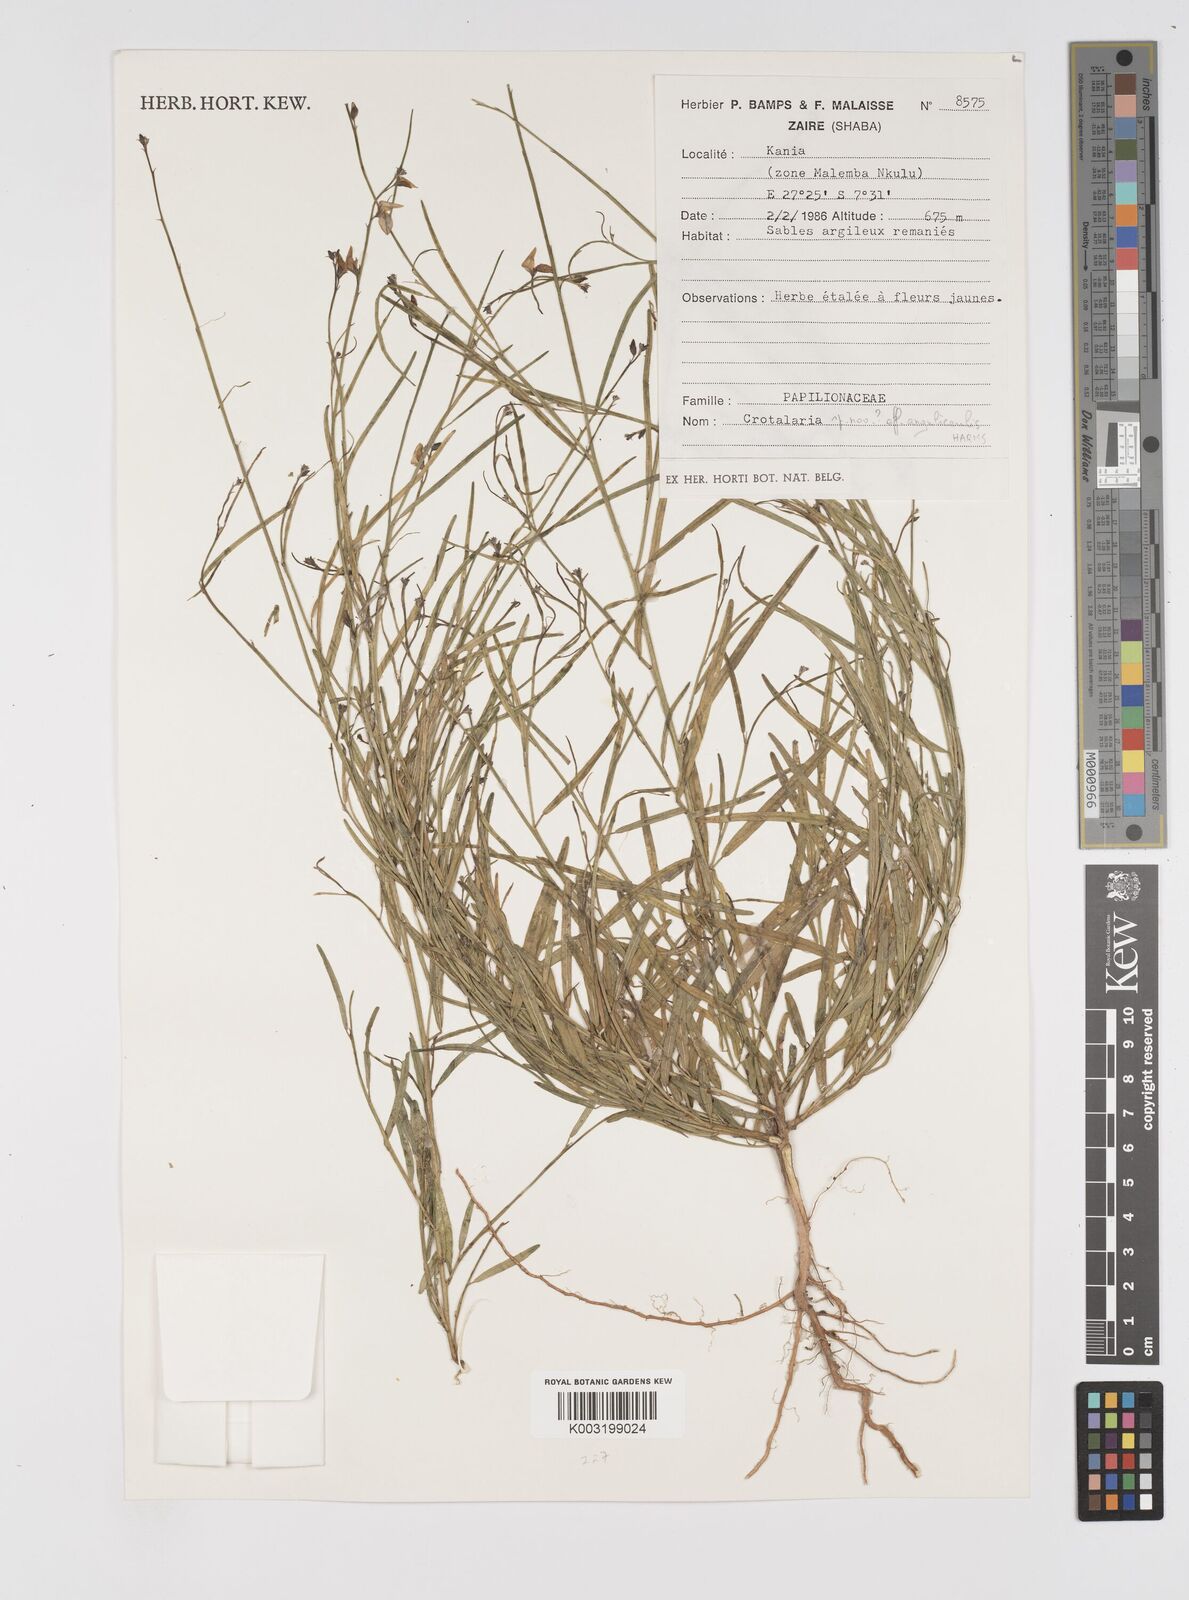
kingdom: Plantae
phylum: Tracheophyta
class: Magnoliopsida
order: Fabales
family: Fabaceae
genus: Crotalaria
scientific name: Crotalaria angulicaulis
